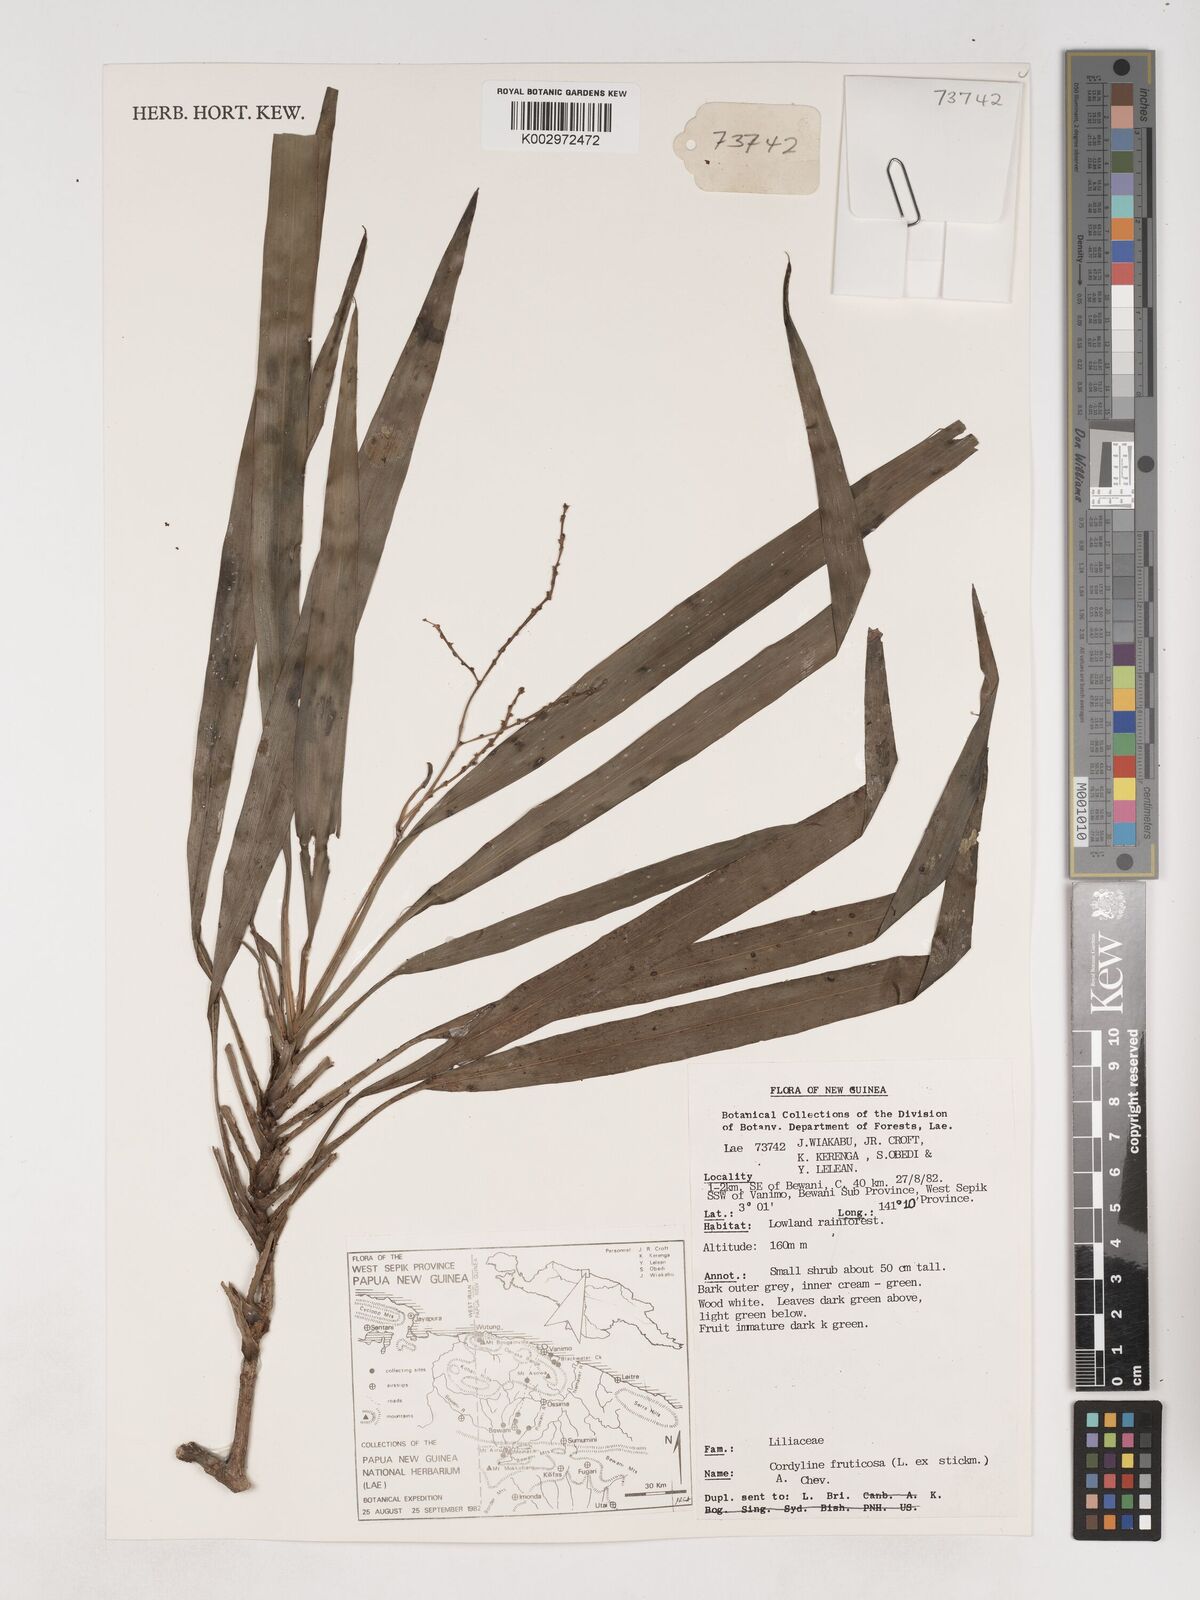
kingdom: Plantae
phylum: Tracheophyta
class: Liliopsida
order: Asparagales
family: Asparagaceae
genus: Cordyline
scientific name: Cordyline fruticosa
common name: Good-luck-plant
